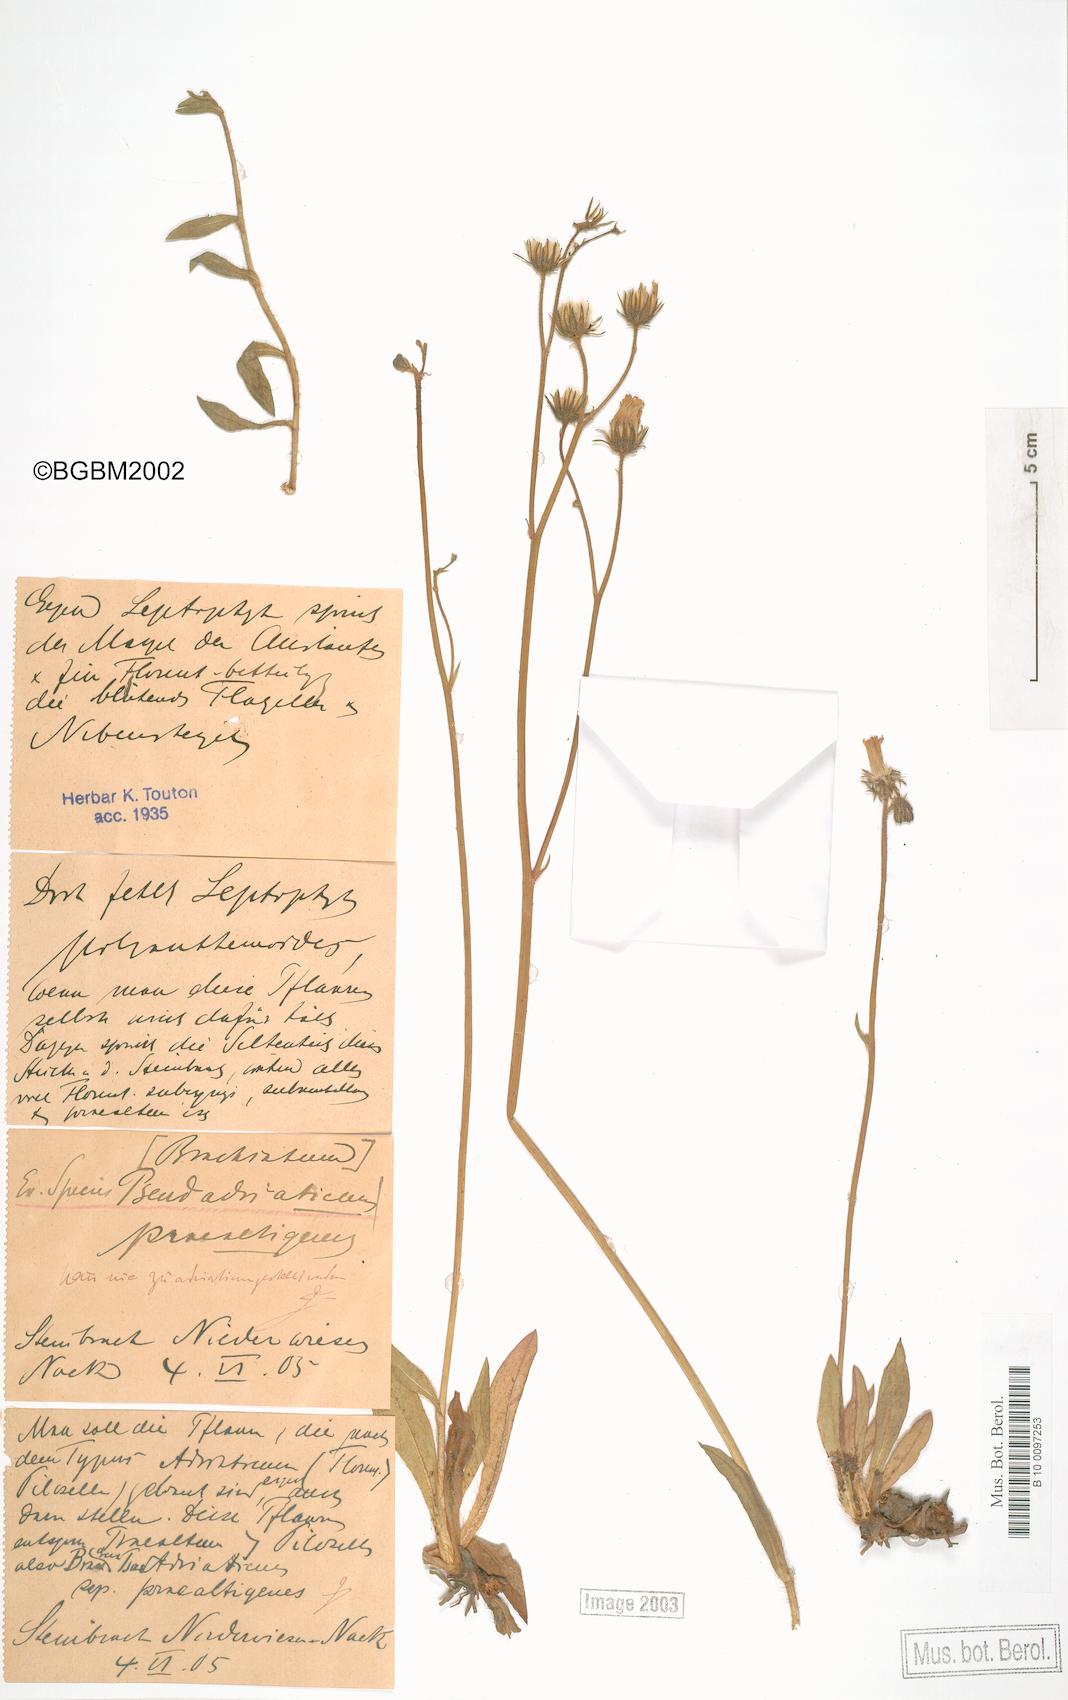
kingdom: Plantae
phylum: Tracheophyta
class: Magnoliopsida
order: Asterales
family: Asteraceae
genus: Pilosella
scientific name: Pilosella acutifolia
